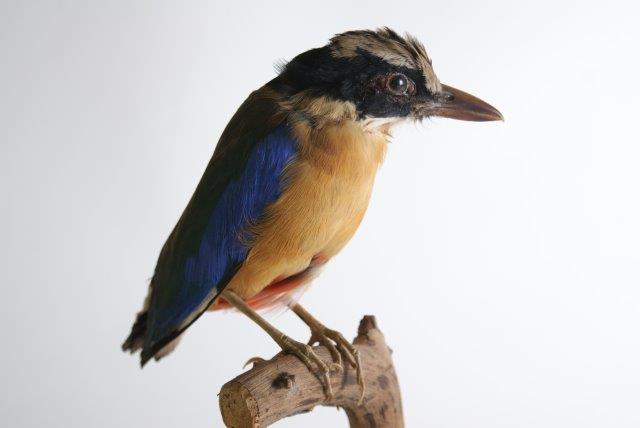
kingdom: Animalia
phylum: Chordata
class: Aves
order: Passeriformes
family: Pittidae
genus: Pitta
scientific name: Pitta moluccensis
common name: Blue-winged pitta
